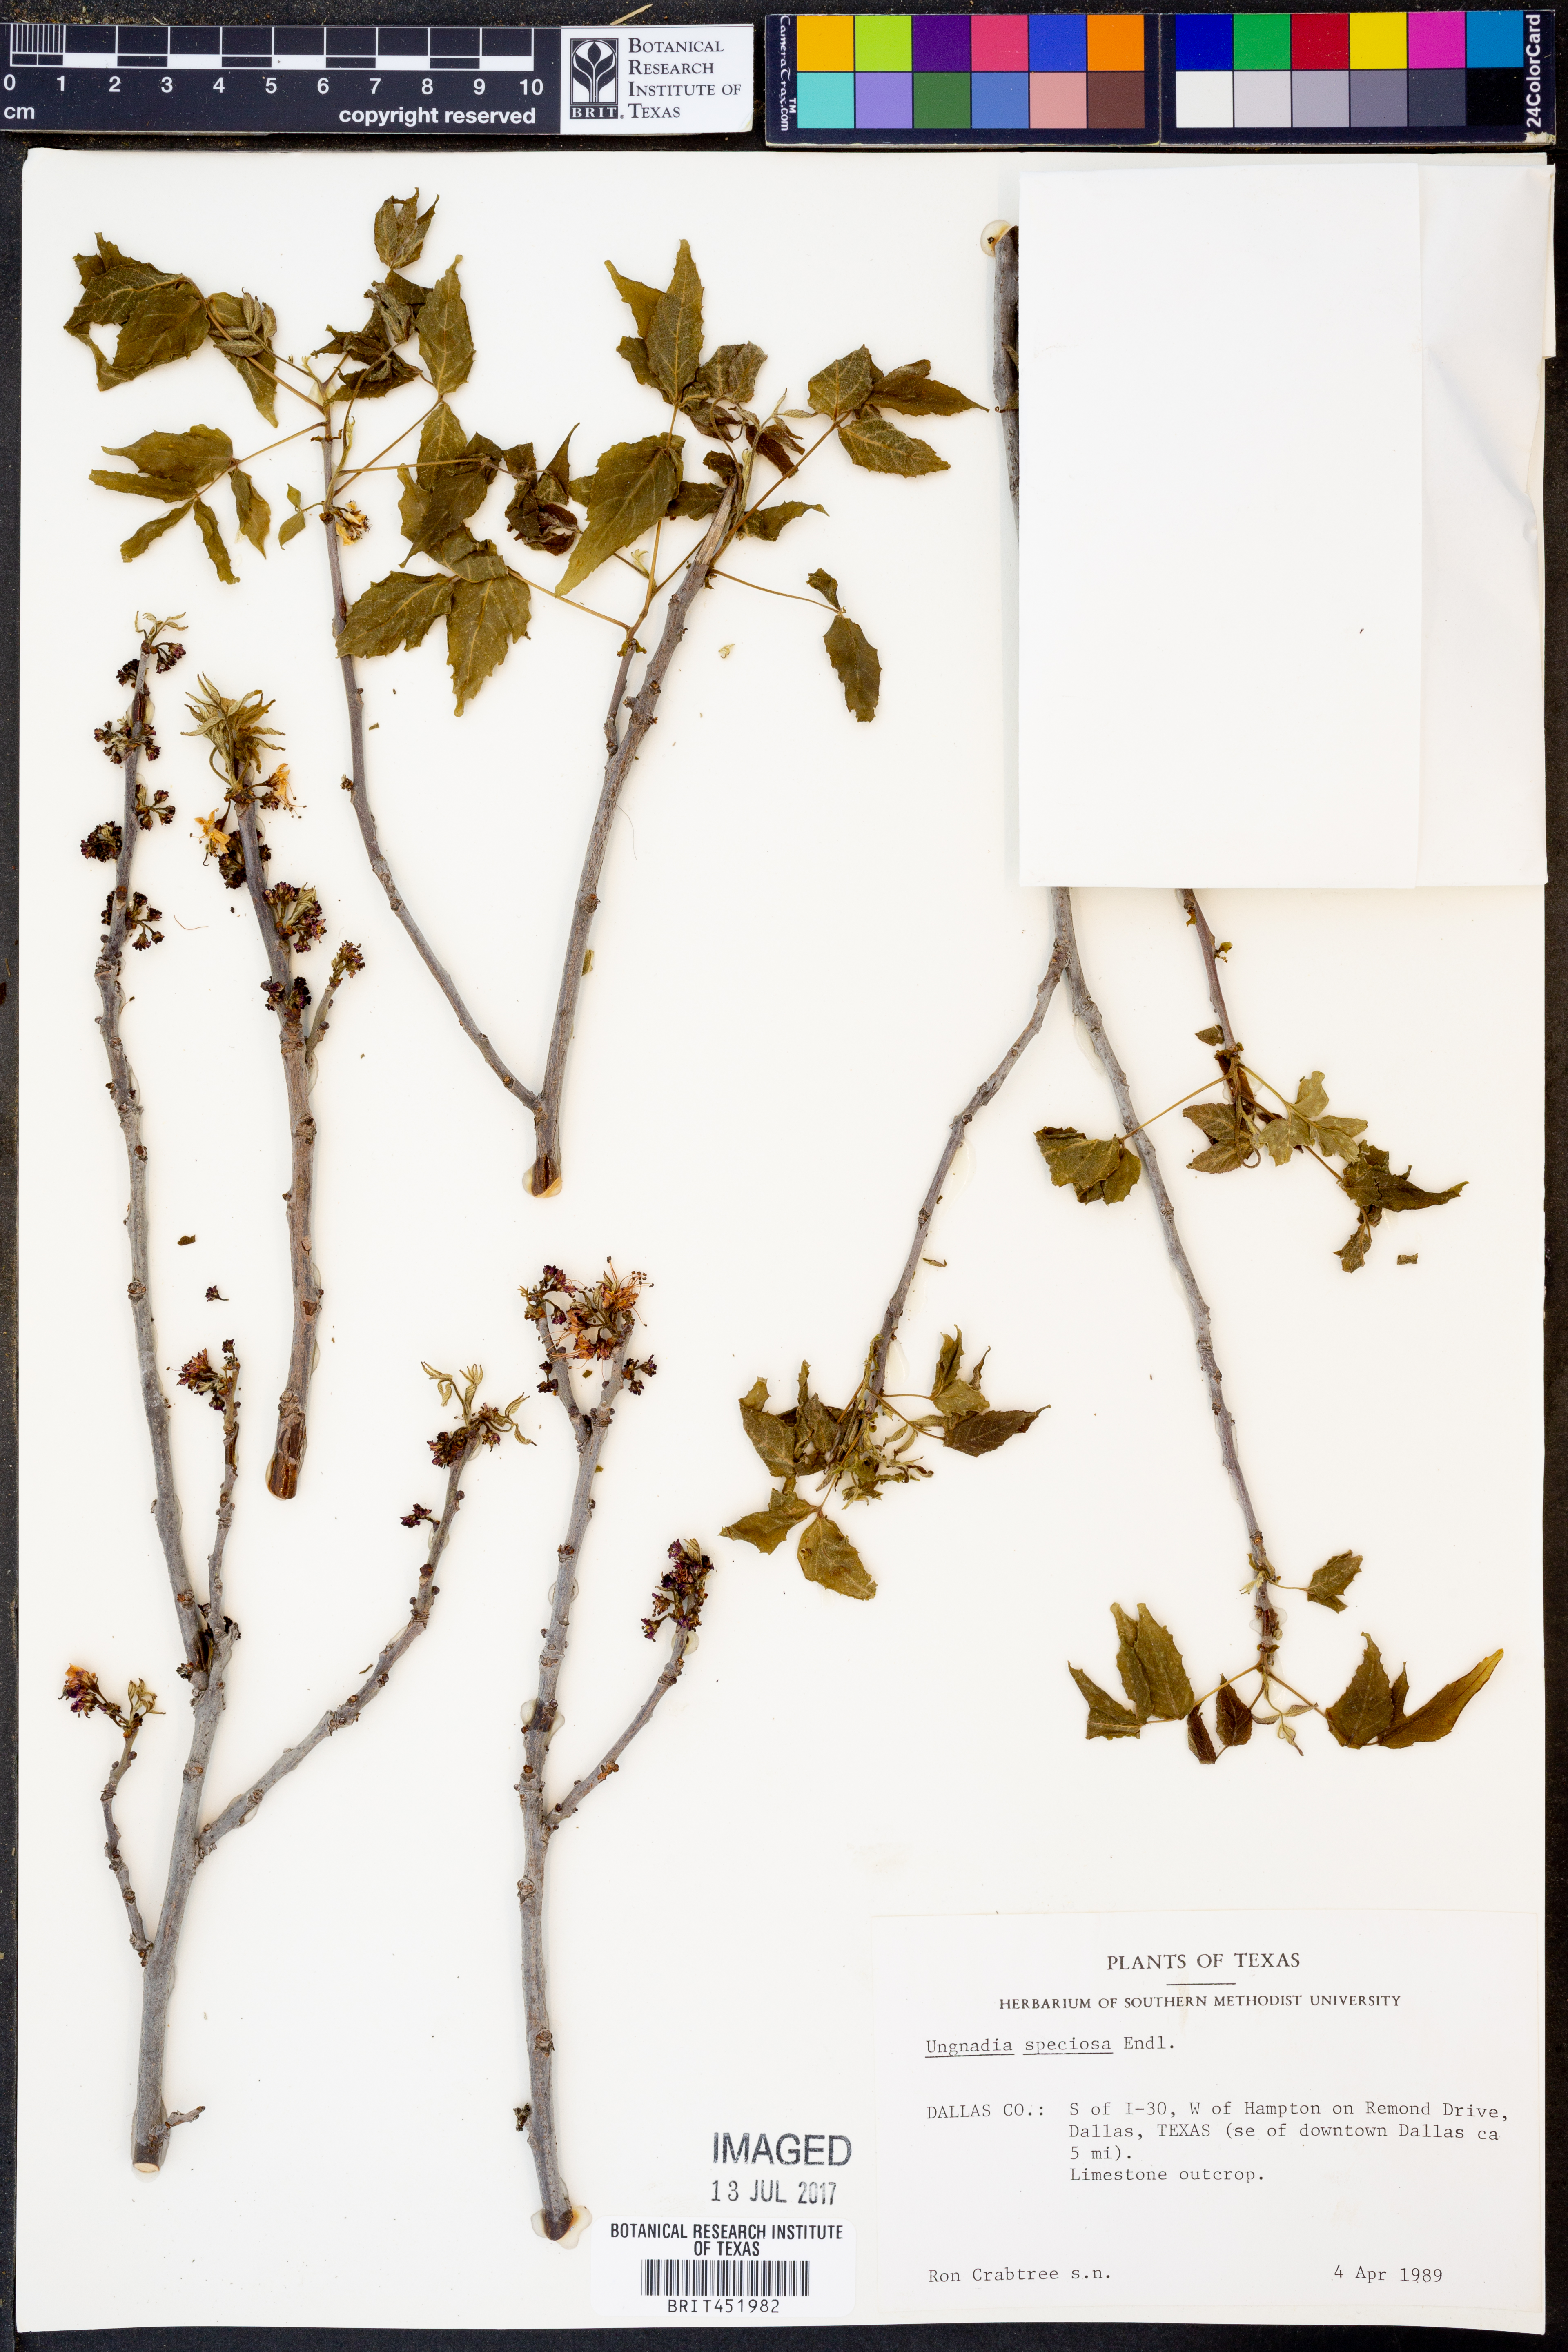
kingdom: Plantae
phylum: Tracheophyta
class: Magnoliopsida
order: Sapindales
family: Sapindaceae
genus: Ungnadia
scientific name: Ungnadia speciosa
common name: Texas-buckeye
